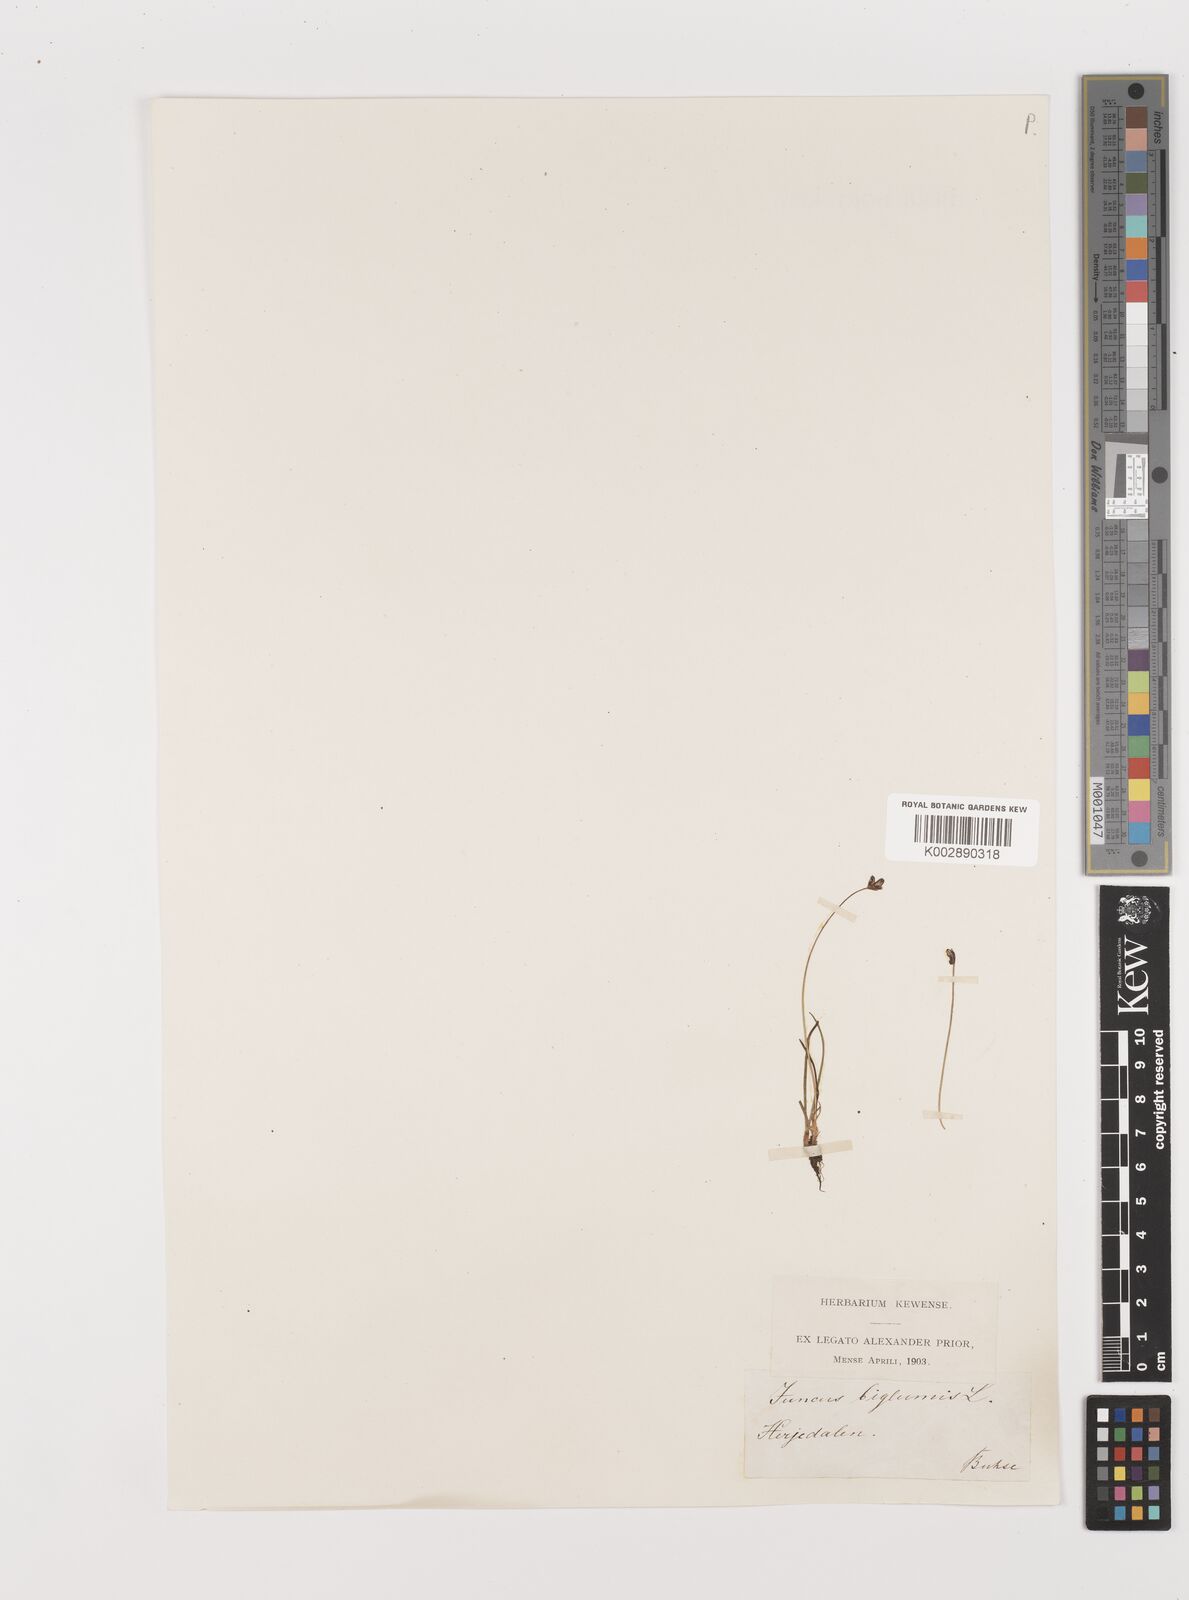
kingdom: Plantae
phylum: Tracheophyta
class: Liliopsida
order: Poales
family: Juncaceae
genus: Juncus
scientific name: Juncus biglumis
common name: Two-flowered rush
